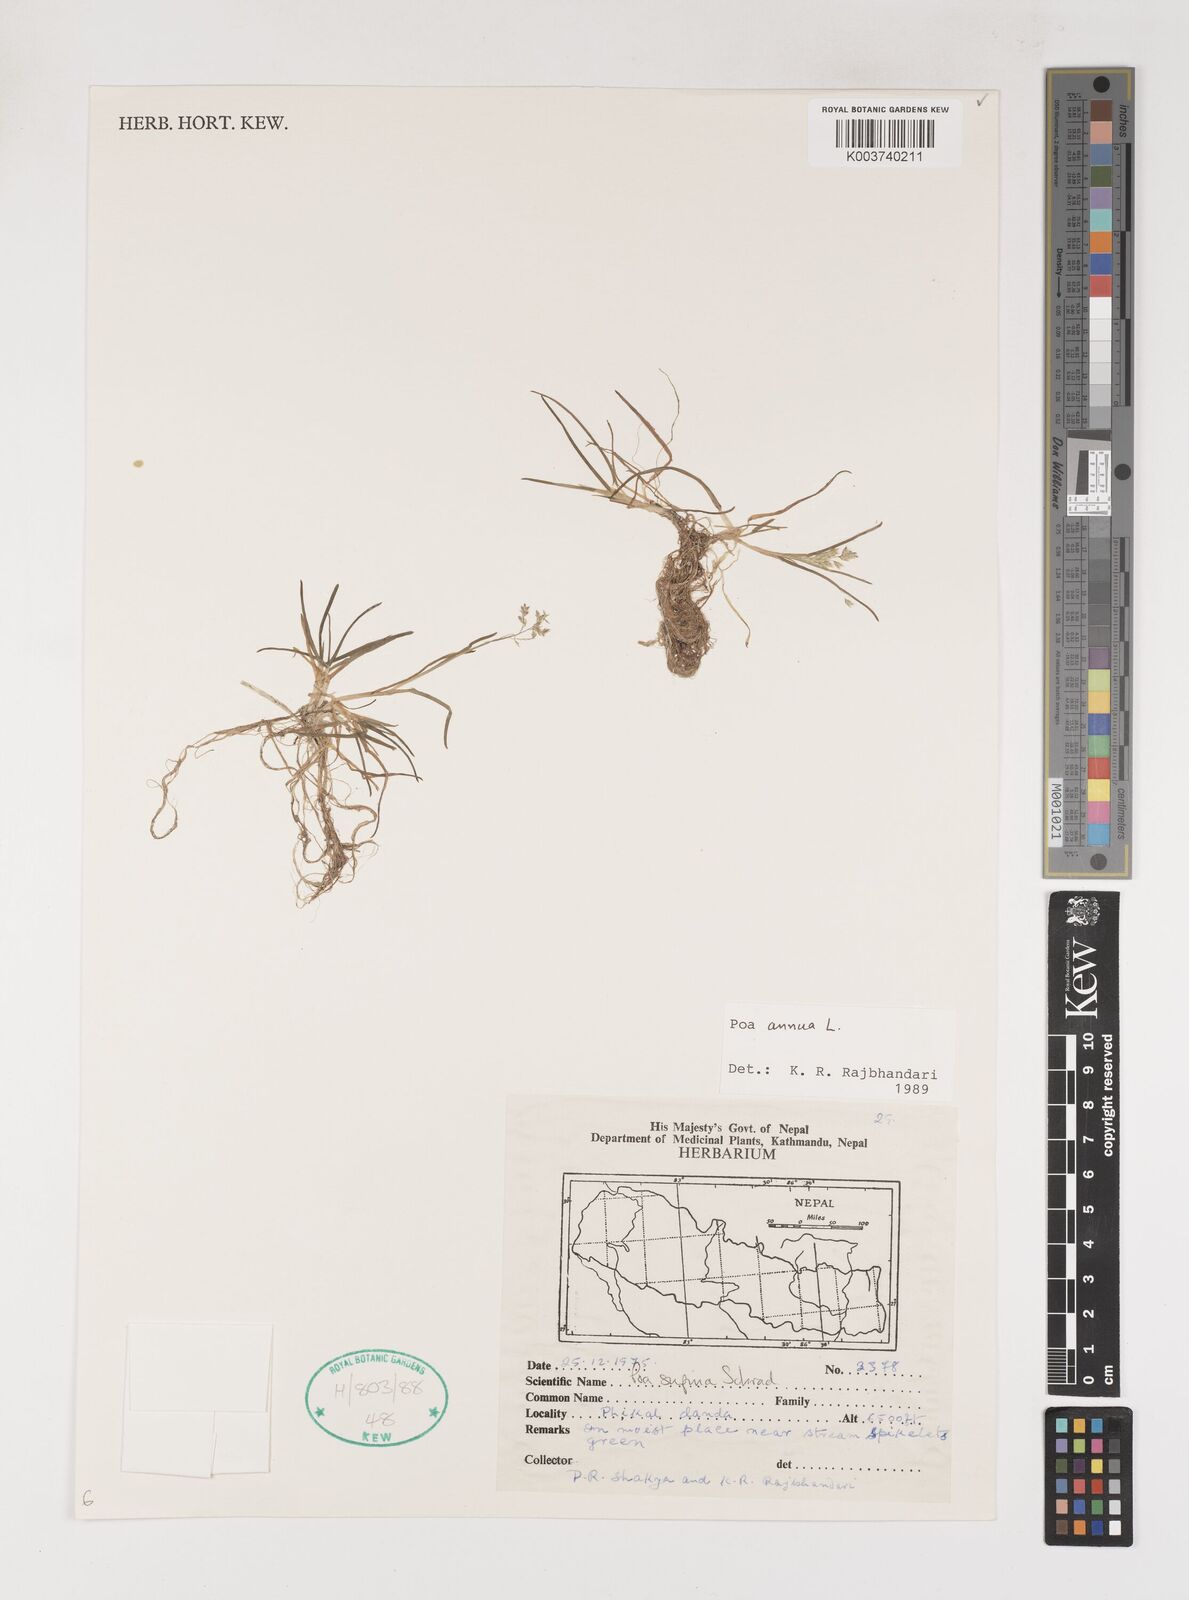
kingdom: Plantae
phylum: Tracheophyta
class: Liliopsida
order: Poales
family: Poaceae
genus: Poa
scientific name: Poa annua
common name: Annual bluegrass
